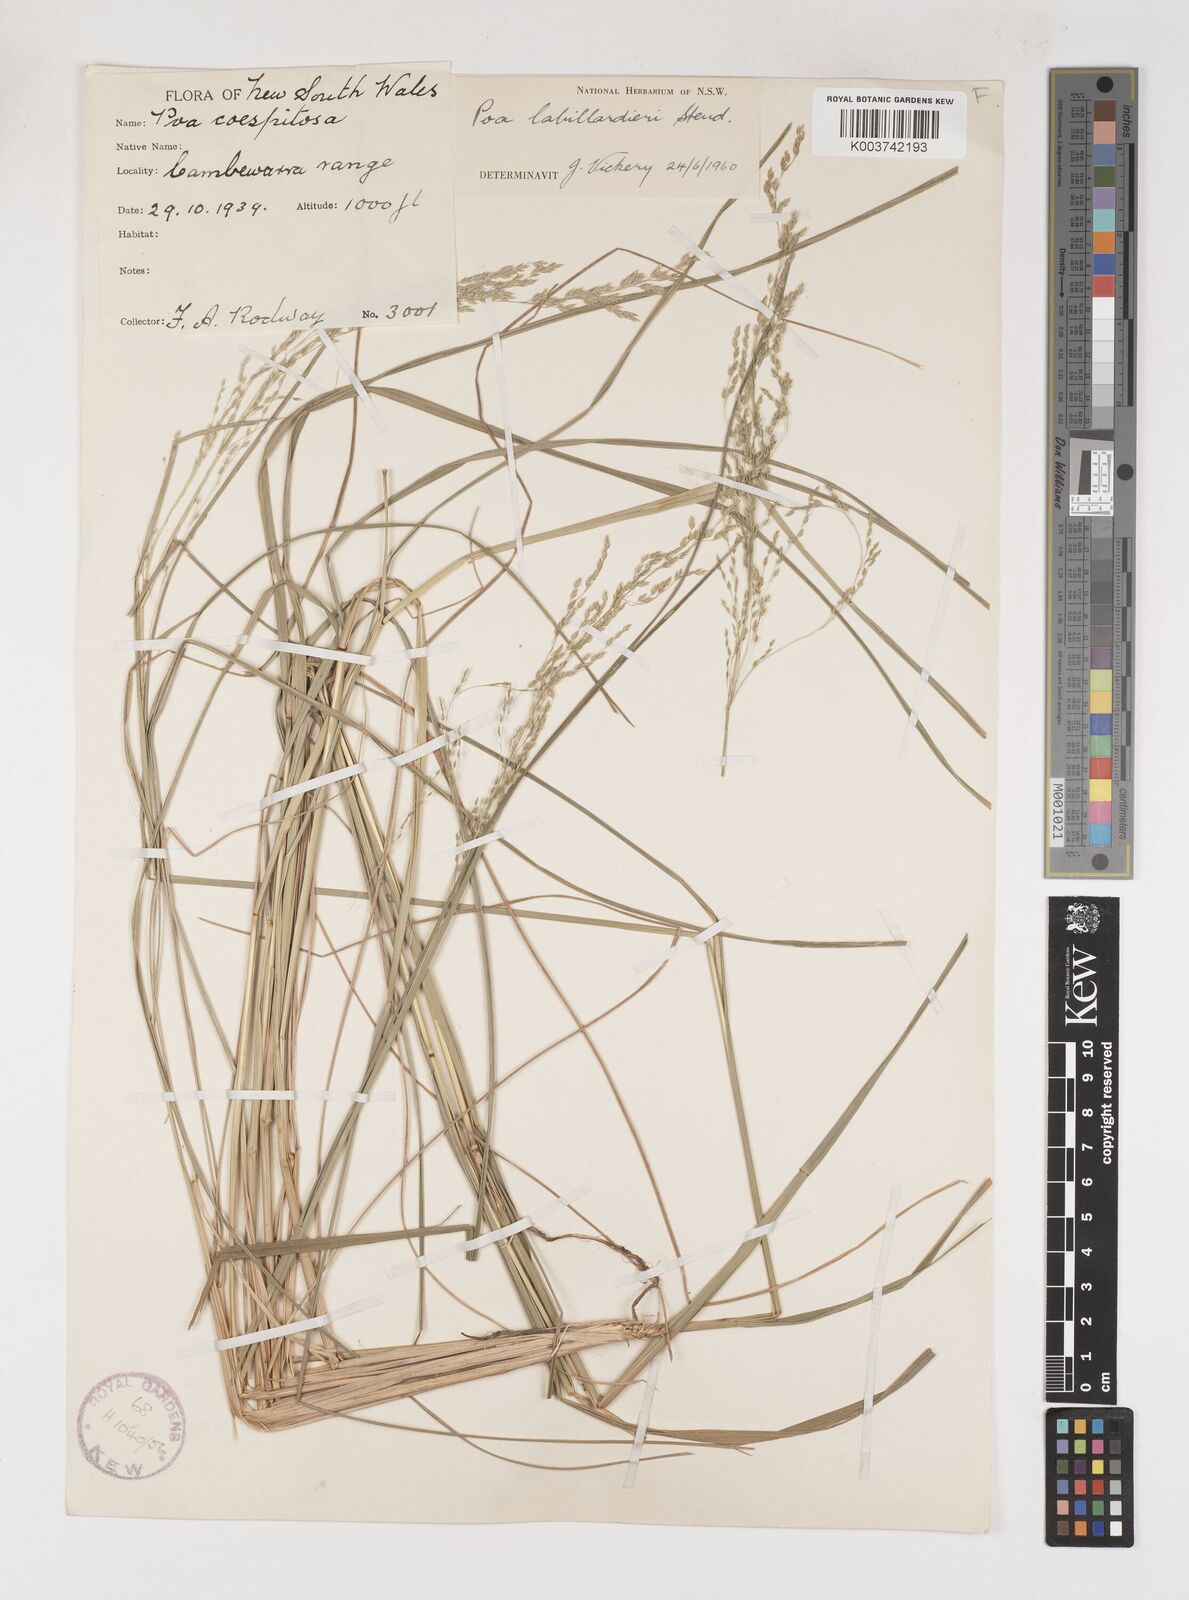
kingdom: Plantae
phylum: Tracheophyta
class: Liliopsida
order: Poales
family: Poaceae
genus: Poa
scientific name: Poa labillardierei
